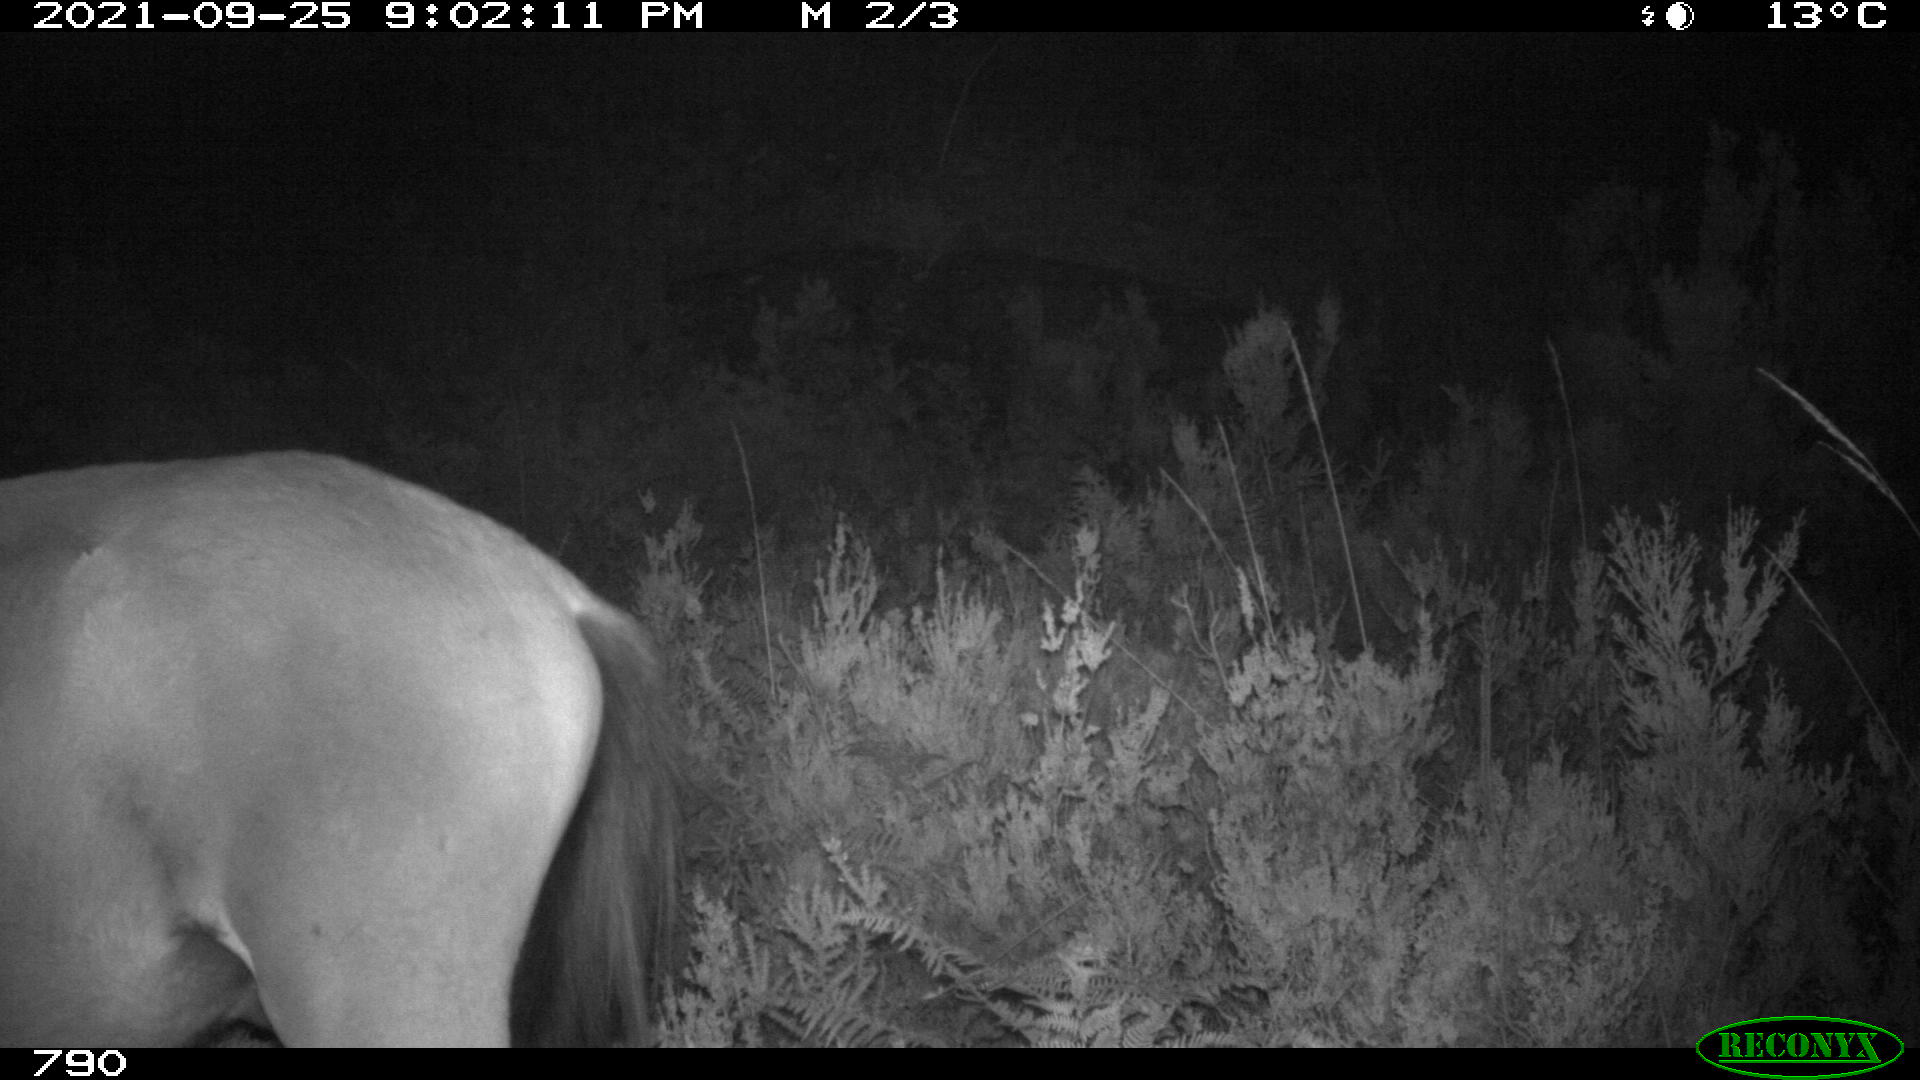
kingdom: Animalia
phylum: Chordata
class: Mammalia
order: Perissodactyla
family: Equidae
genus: Equus
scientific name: Equus caballus
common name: Horse
